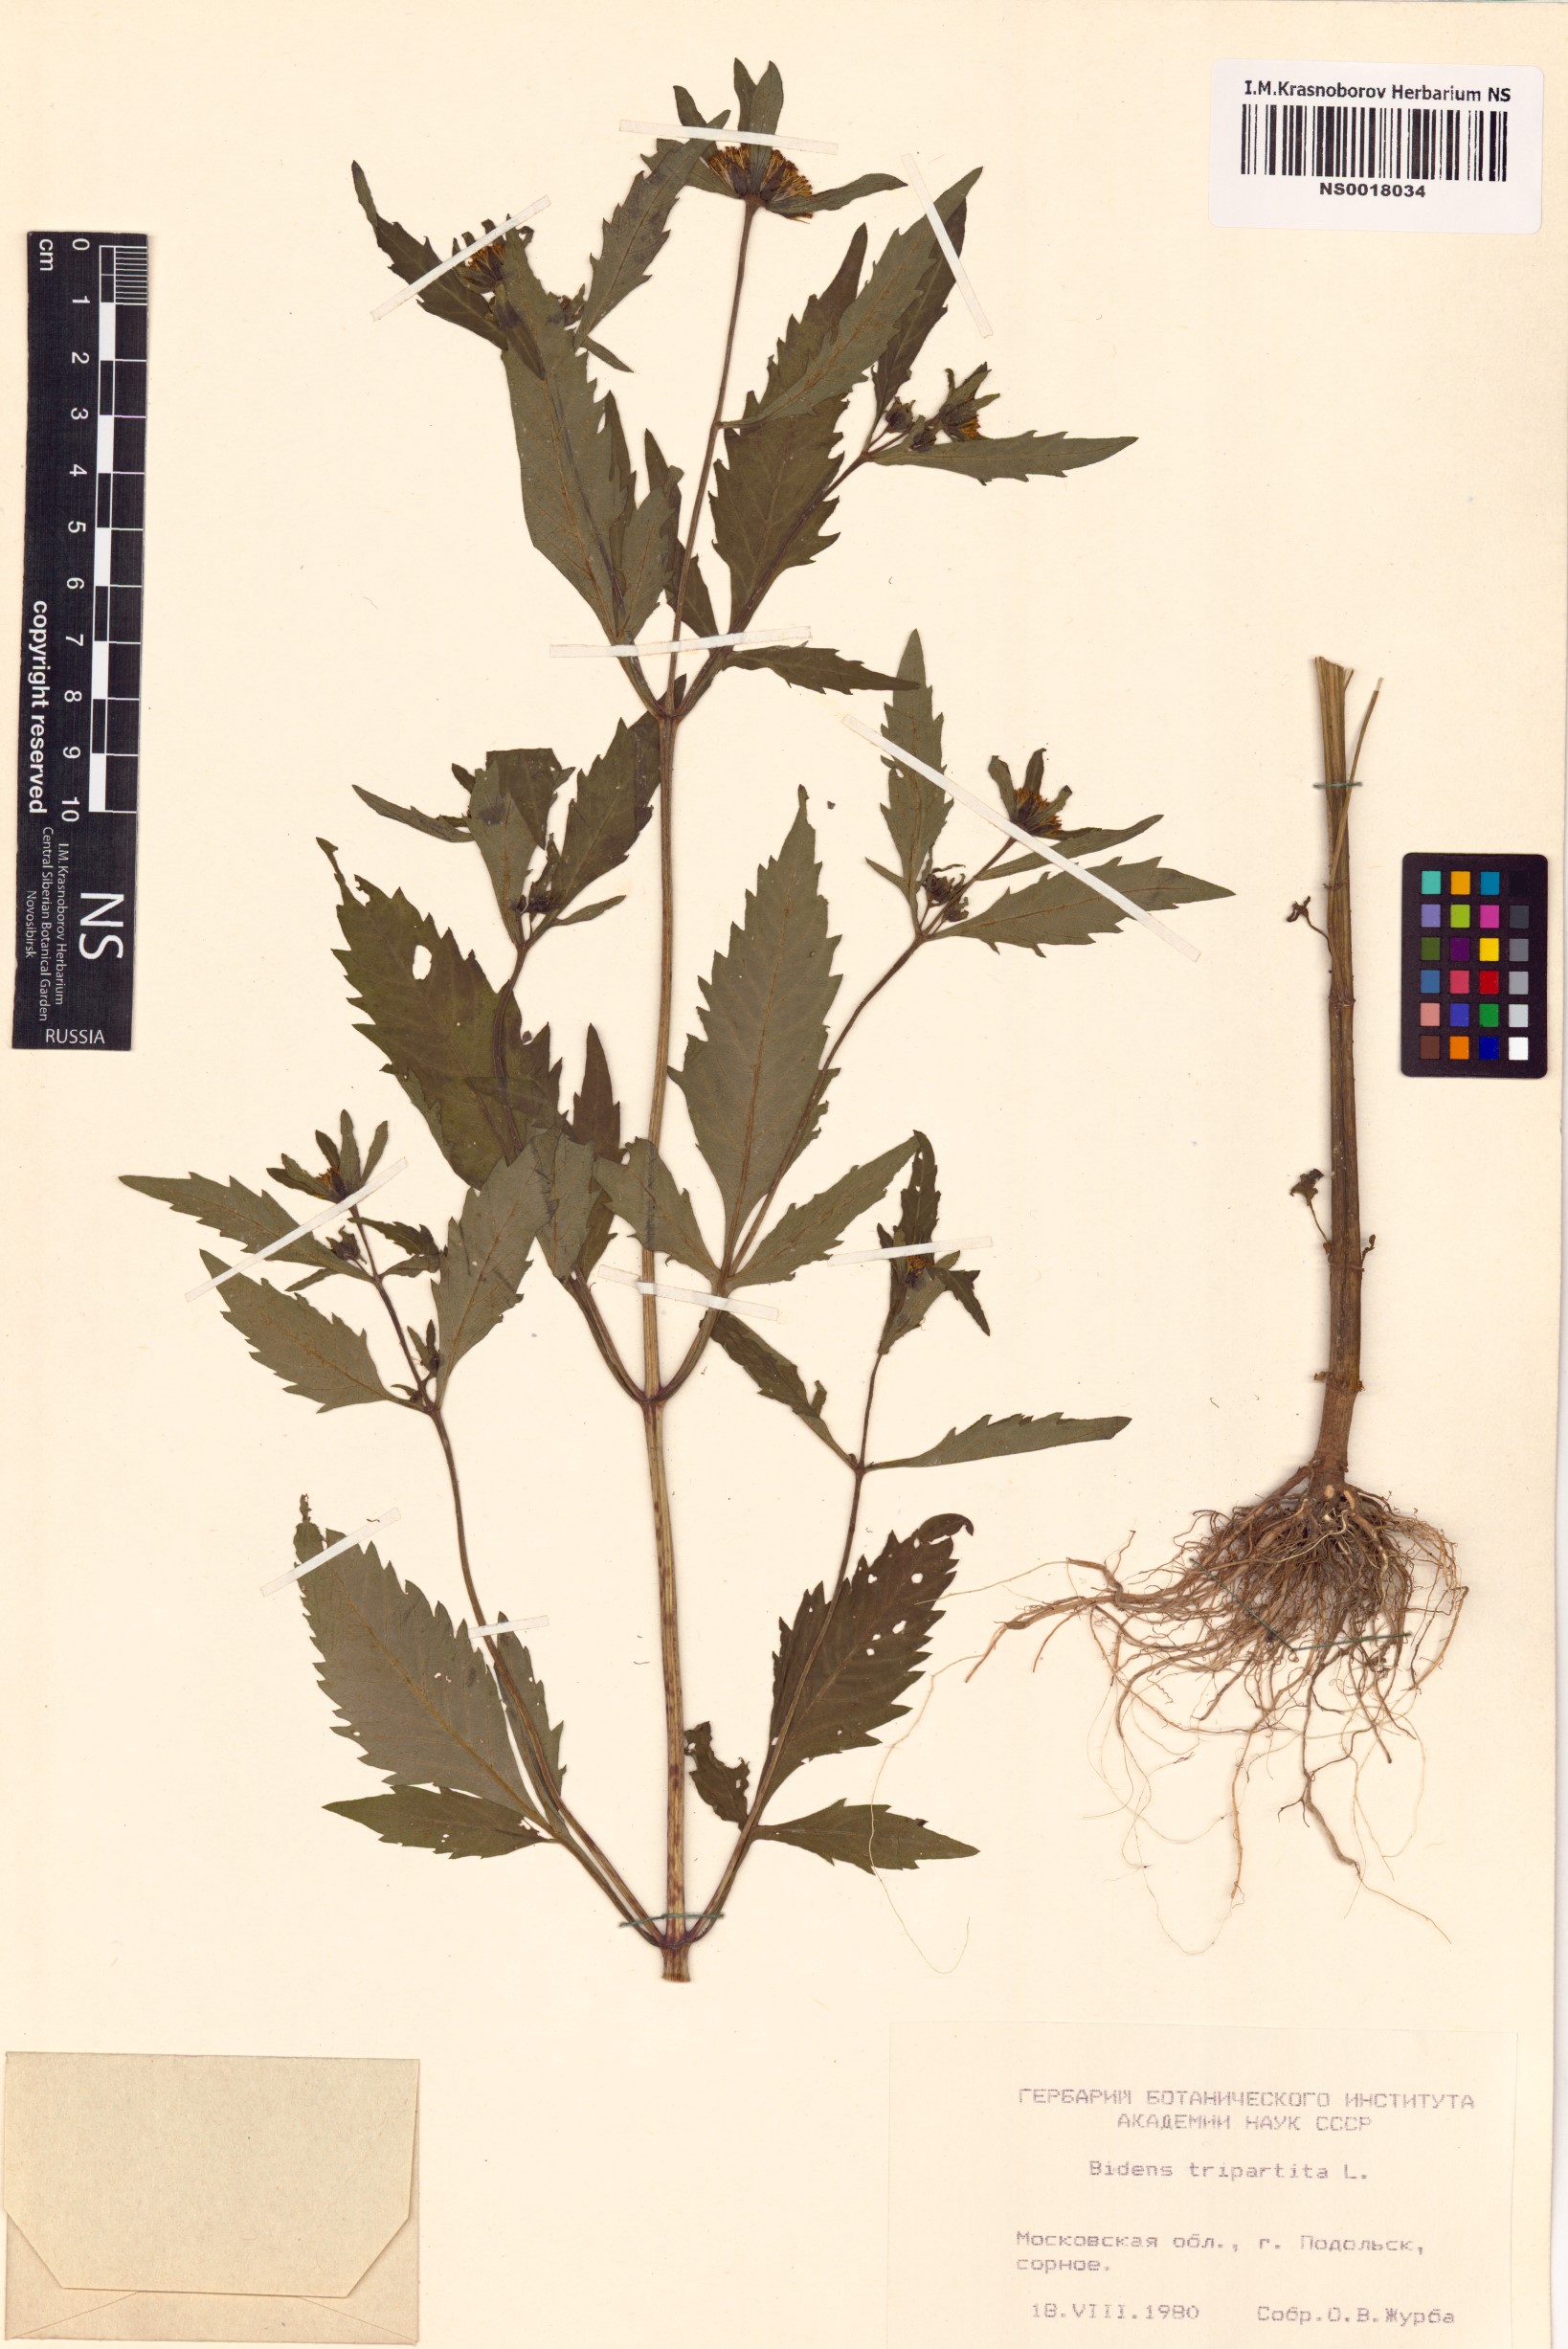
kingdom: Plantae
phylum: Tracheophyta
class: Magnoliopsida
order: Asterales
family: Asteraceae
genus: Bidens
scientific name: Bidens tripartita
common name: Trifid bur-marigold
